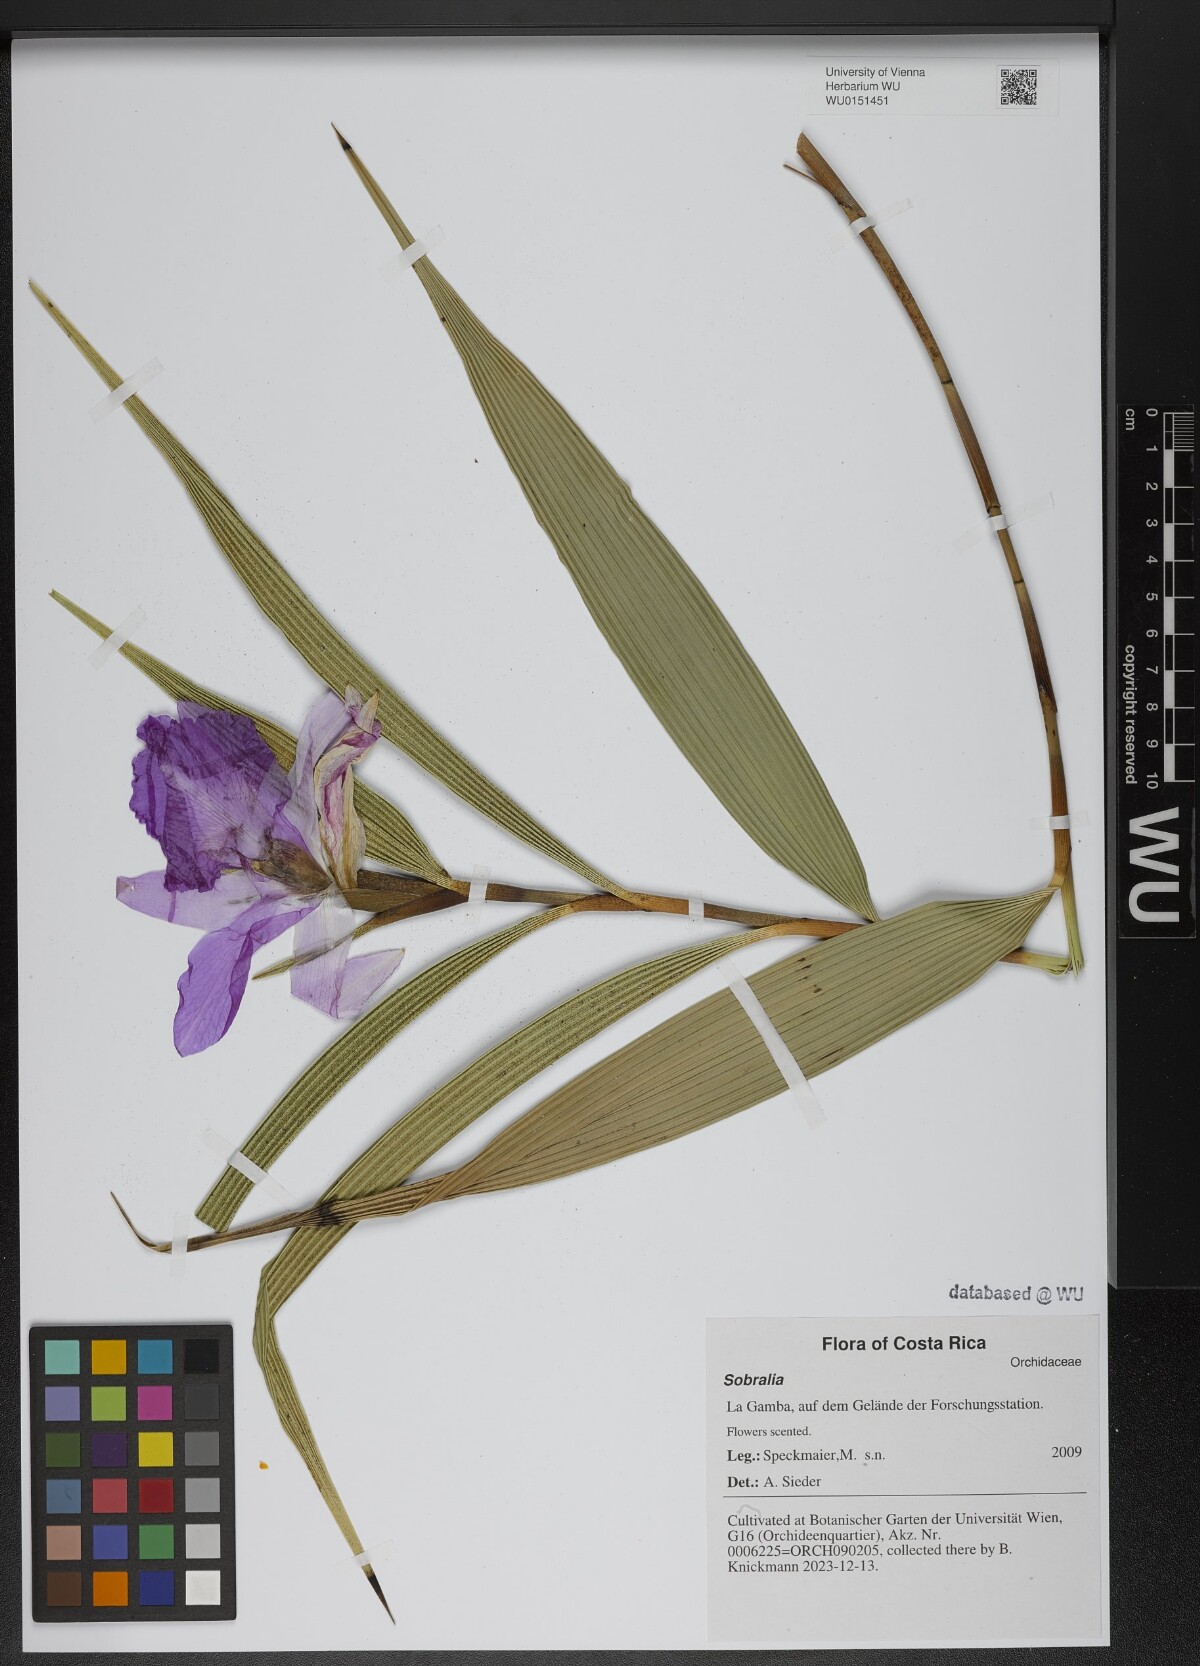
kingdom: Plantae
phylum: Tracheophyta
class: Liliopsida
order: Asparagales
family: Orchidaceae
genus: Sobralia
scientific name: Sobralia
